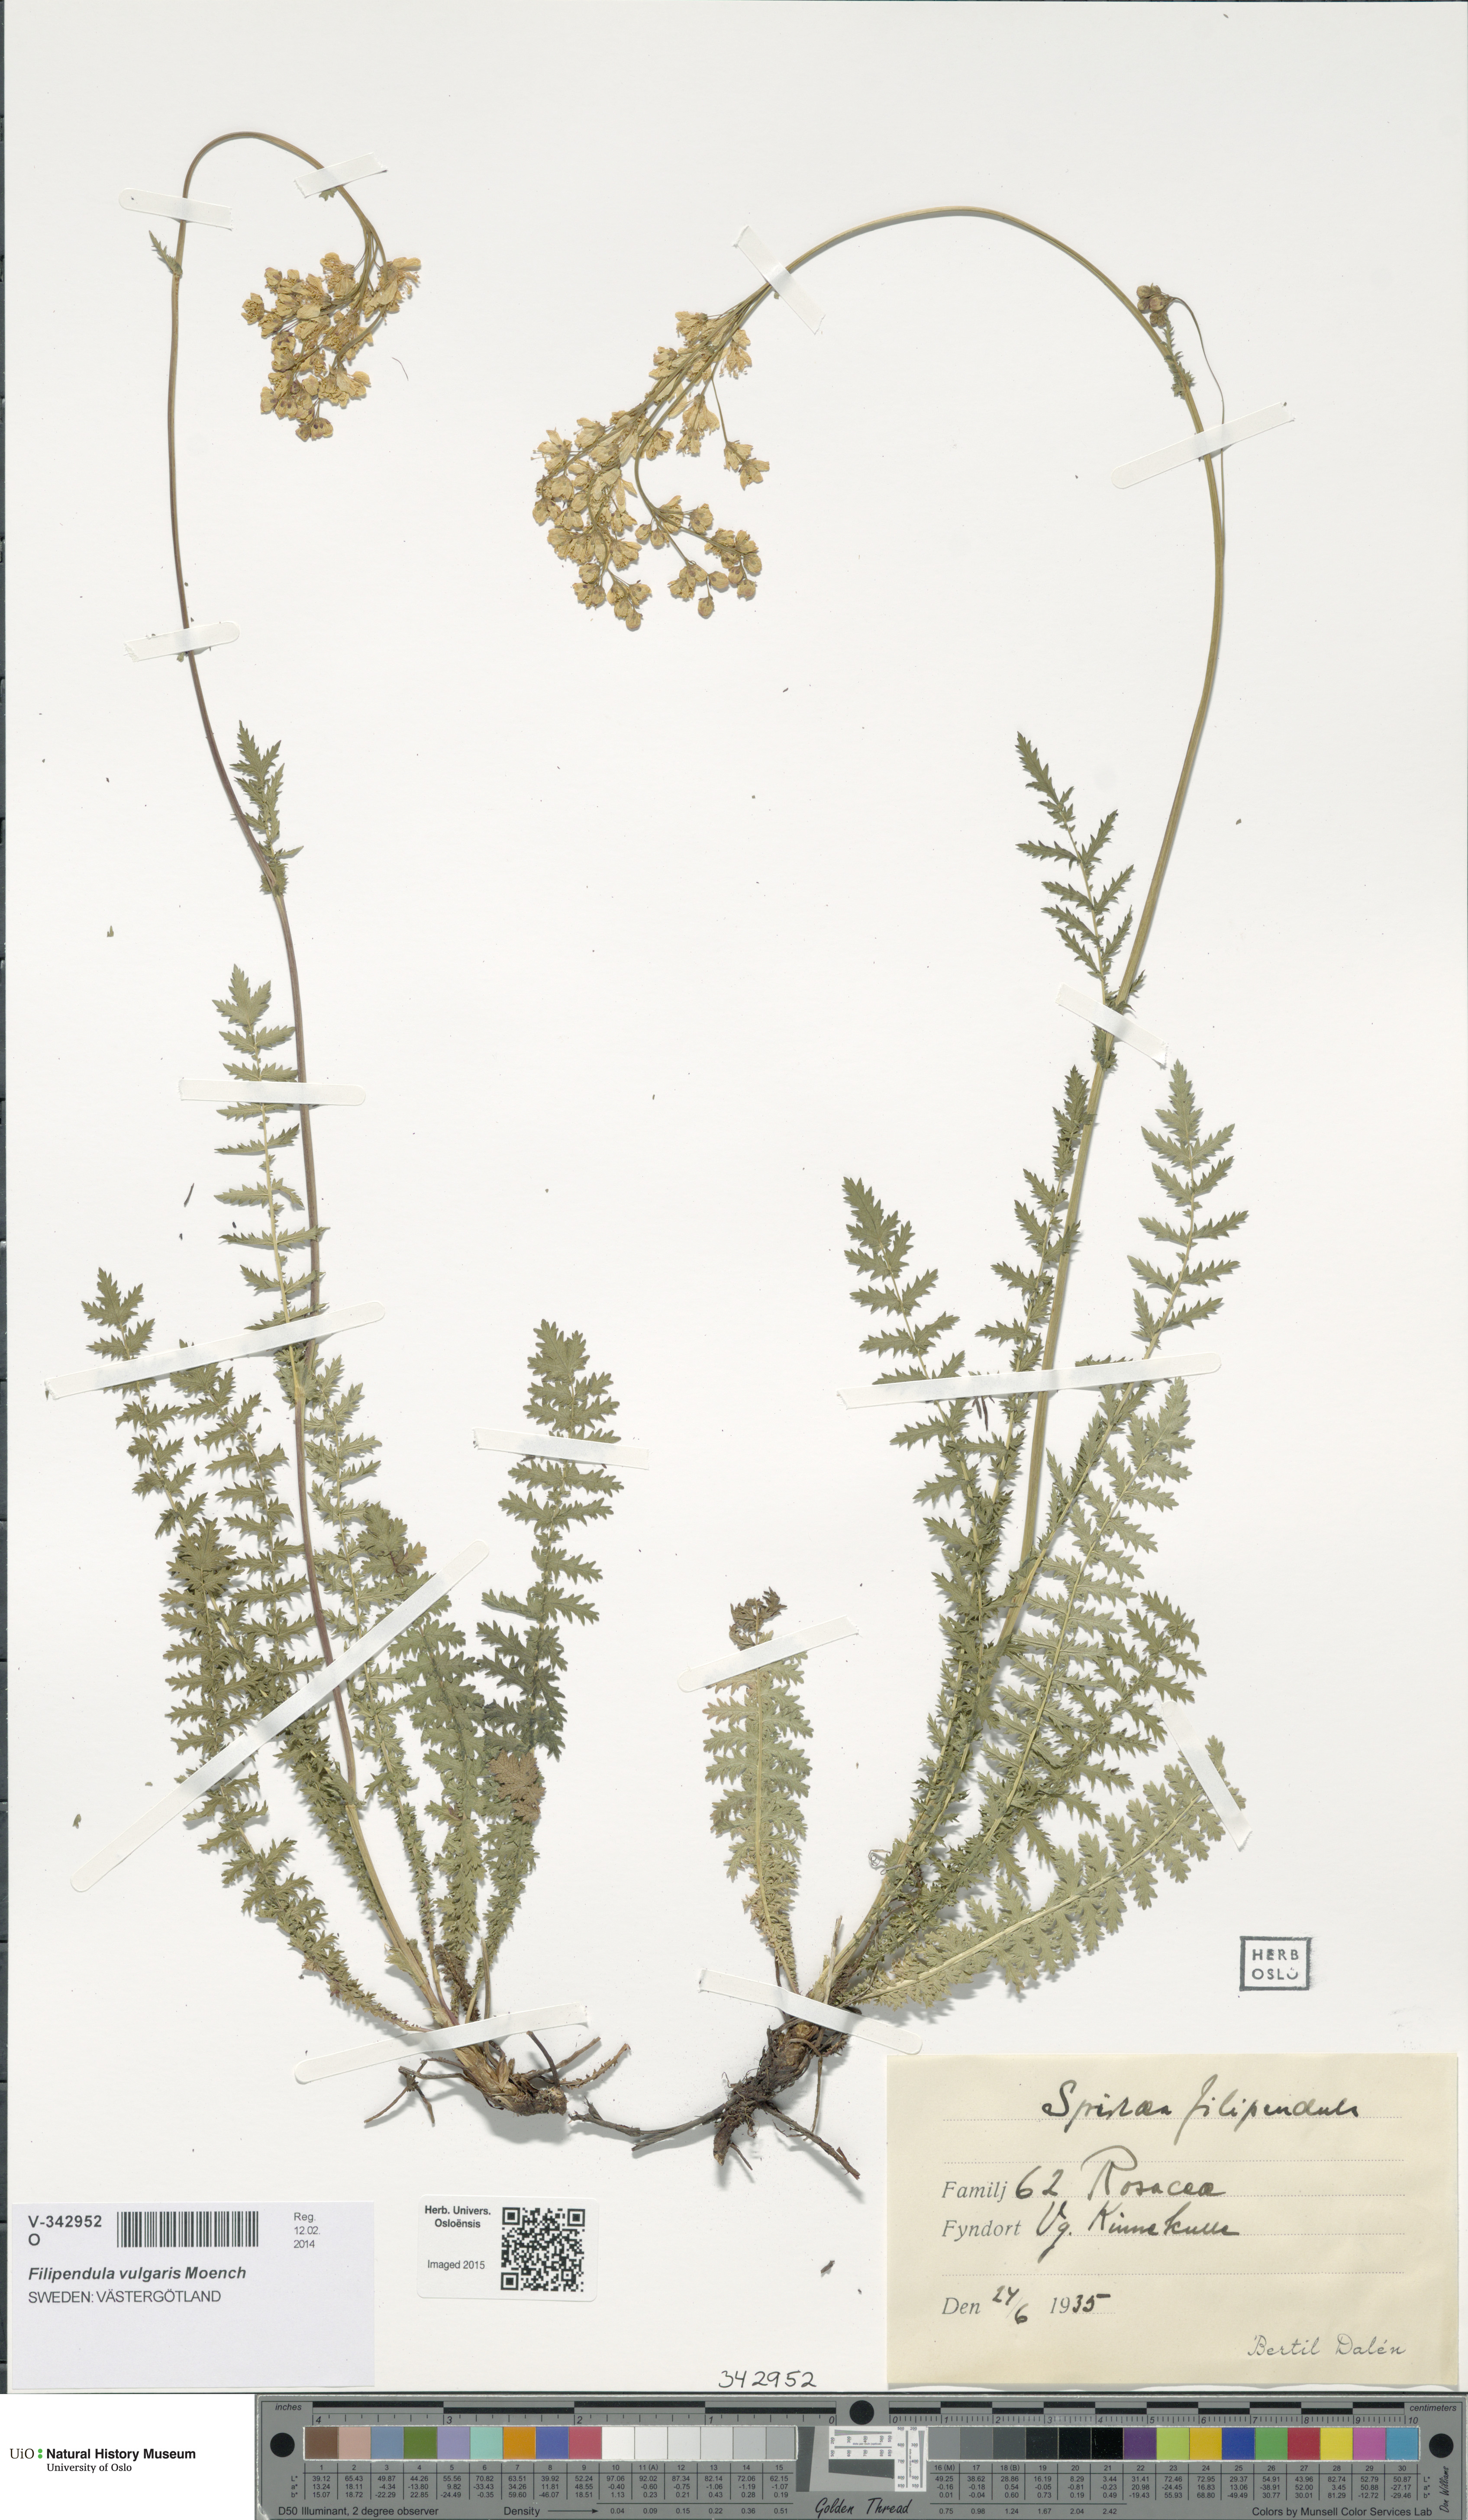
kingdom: Plantae
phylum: Tracheophyta
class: Magnoliopsida
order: Rosales
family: Rosaceae
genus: Filipendula
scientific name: Filipendula vulgaris
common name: Dropwort
